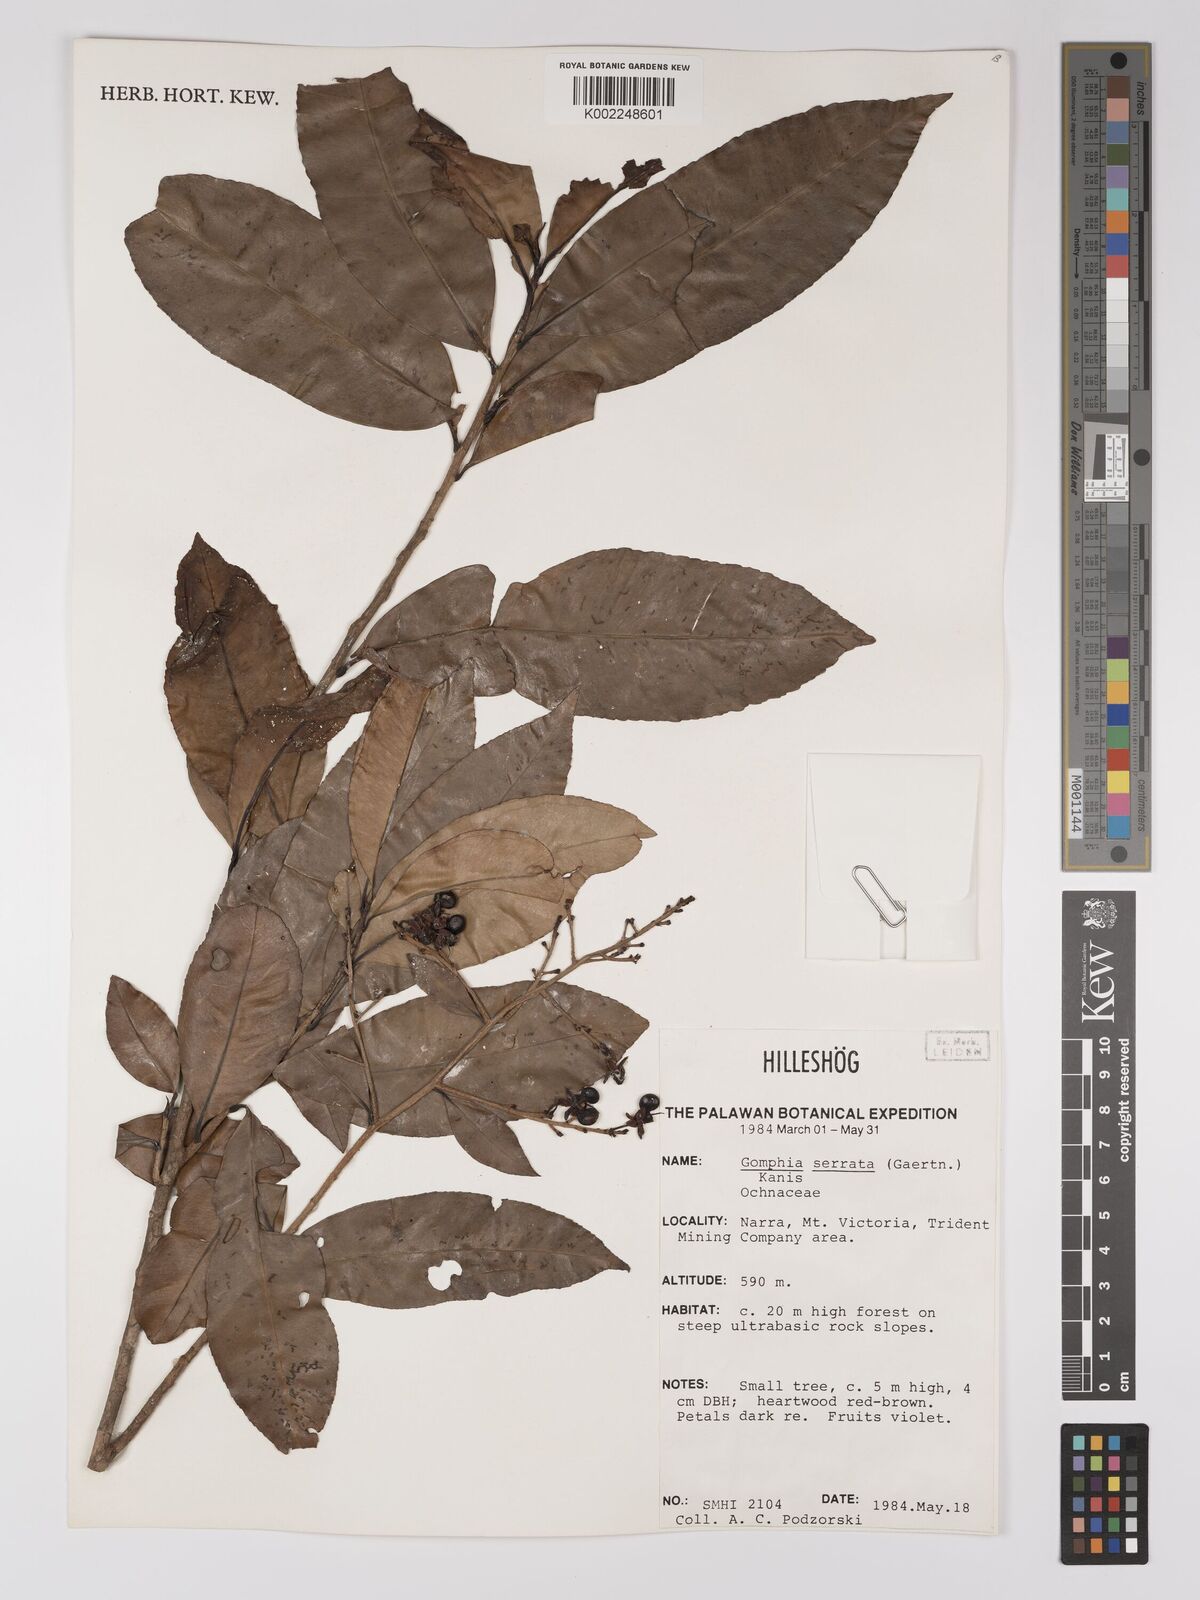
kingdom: Plantae
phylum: Tracheophyta
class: Magnoliopsida
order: Malpighiales
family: Ochnaceae
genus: Gomphia
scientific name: Gomphia serrata
